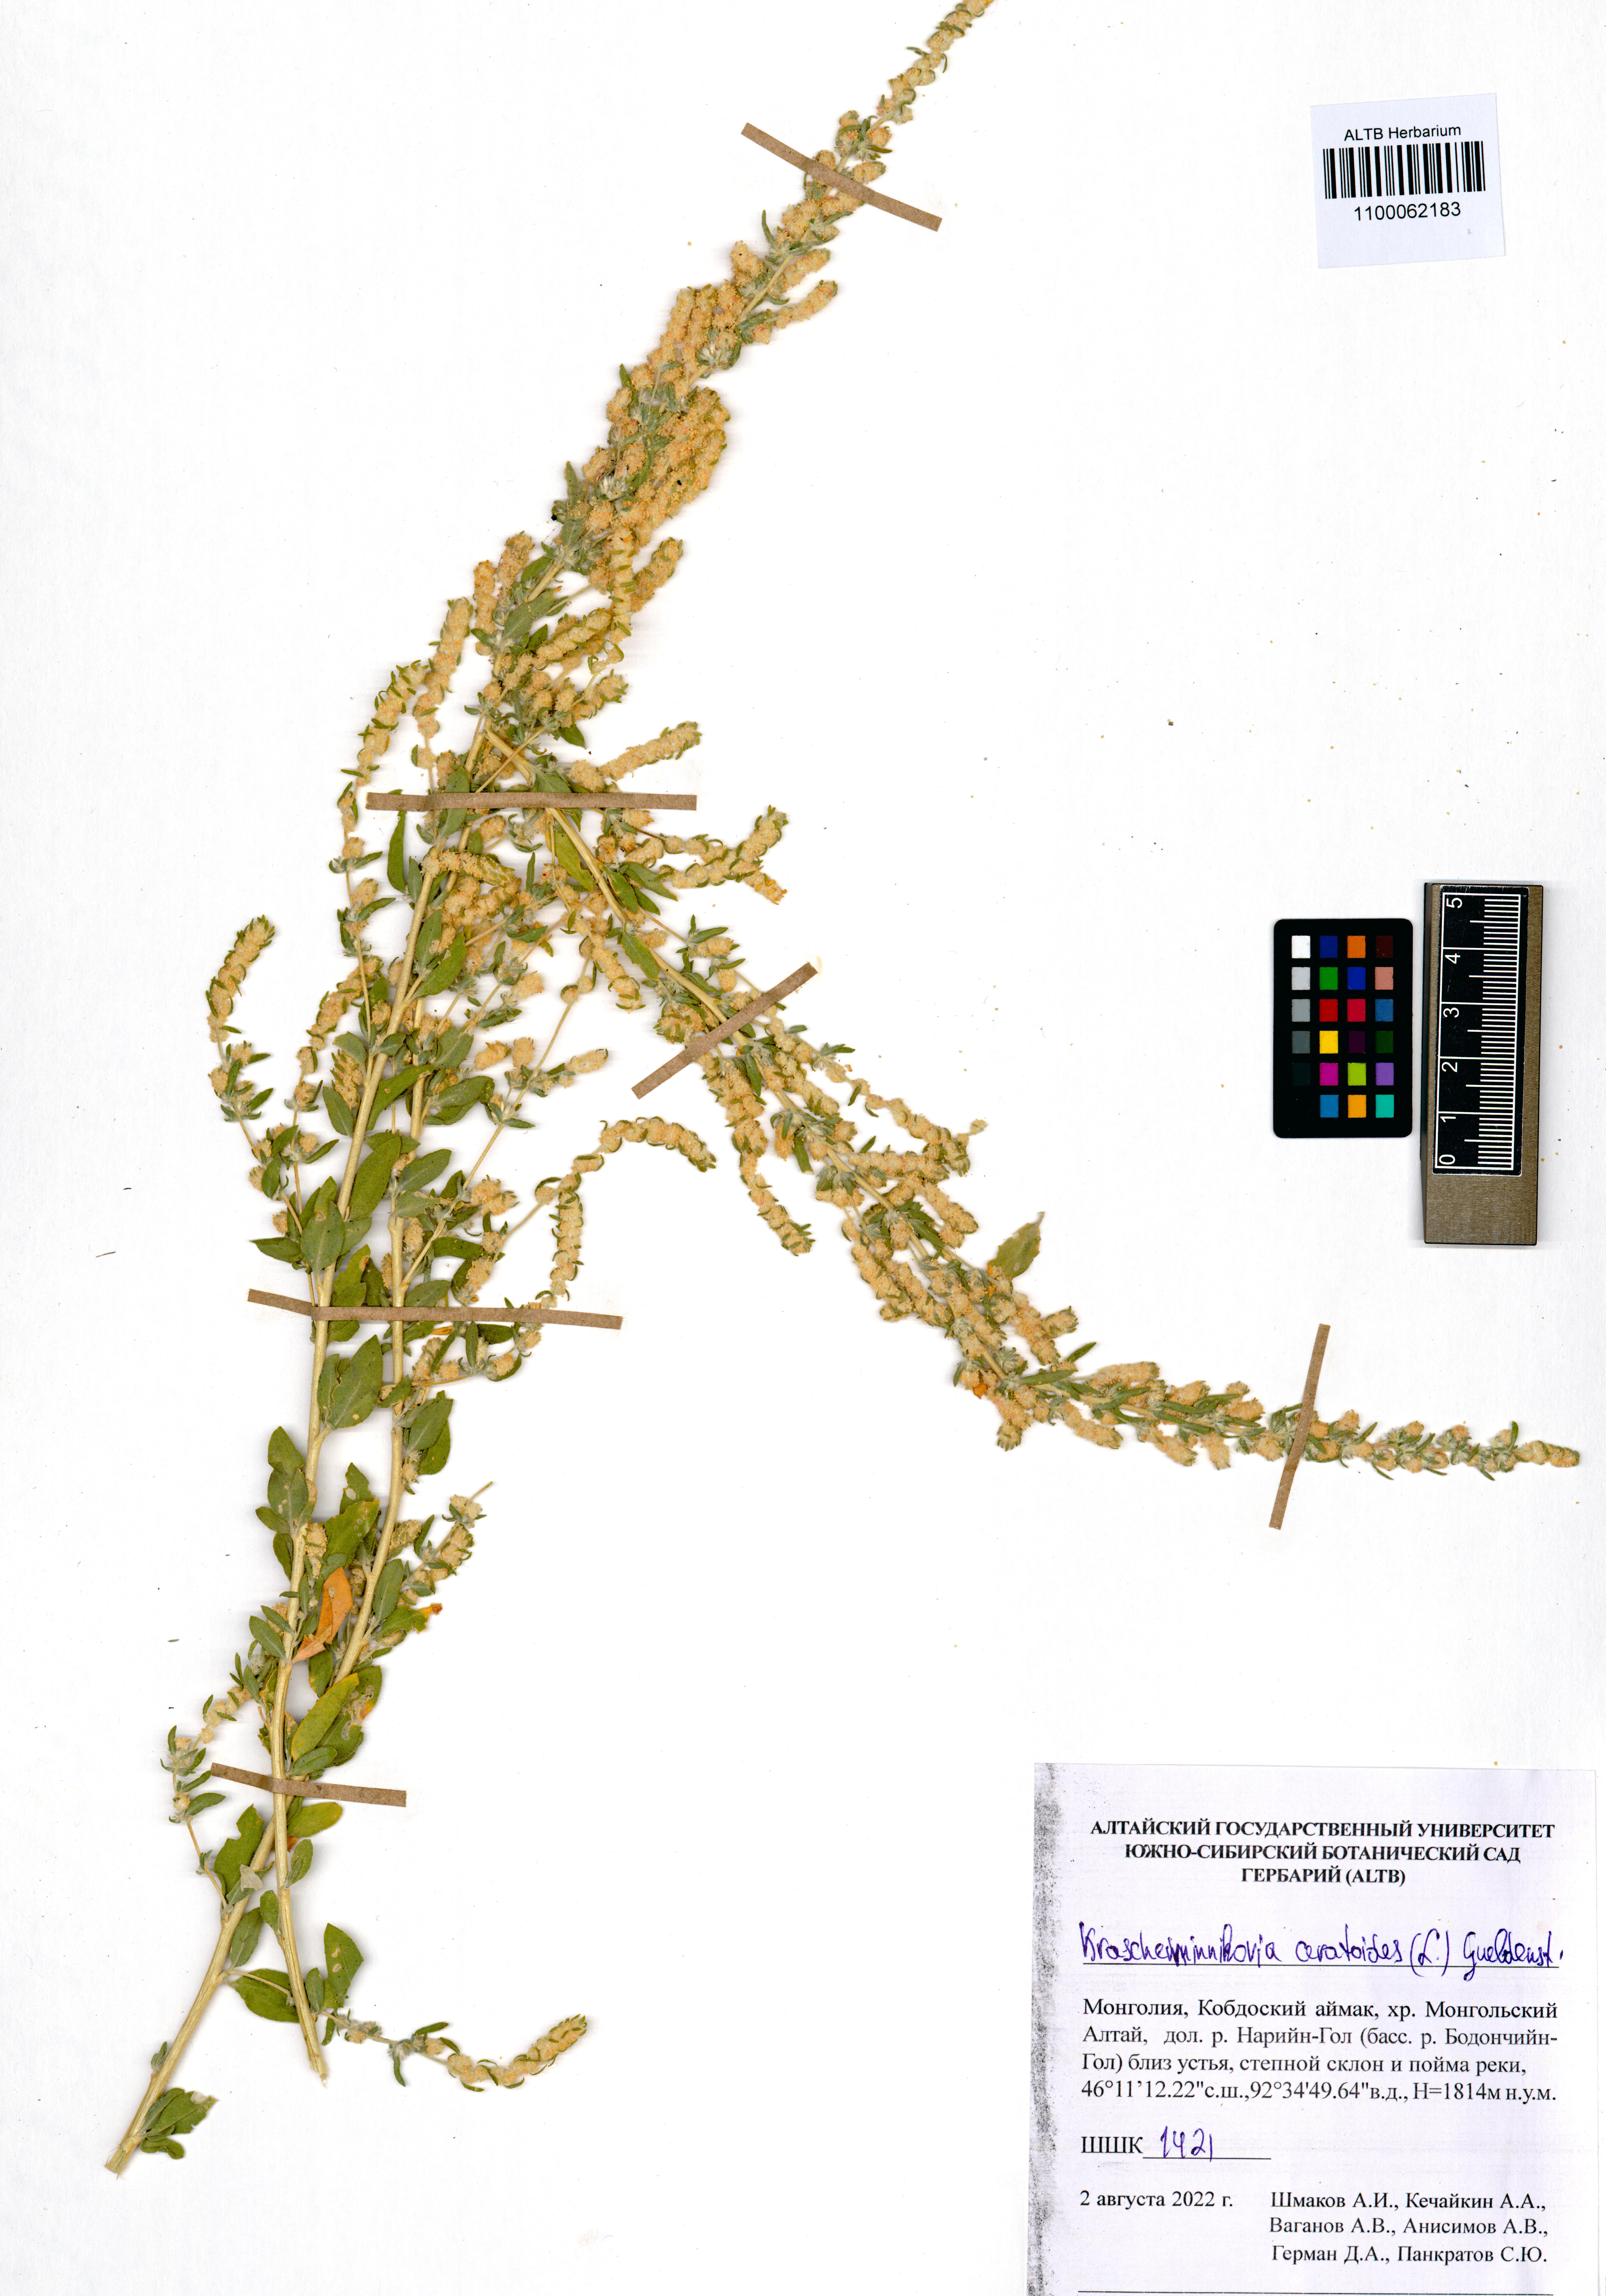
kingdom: Plantae
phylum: Tracheophyta
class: Magnoliopsida
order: Caryophyllales
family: Amaranthaceae
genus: Krascheninnikovia
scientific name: Krascheninnikovia ceratoides
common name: Pamirian winterfat
